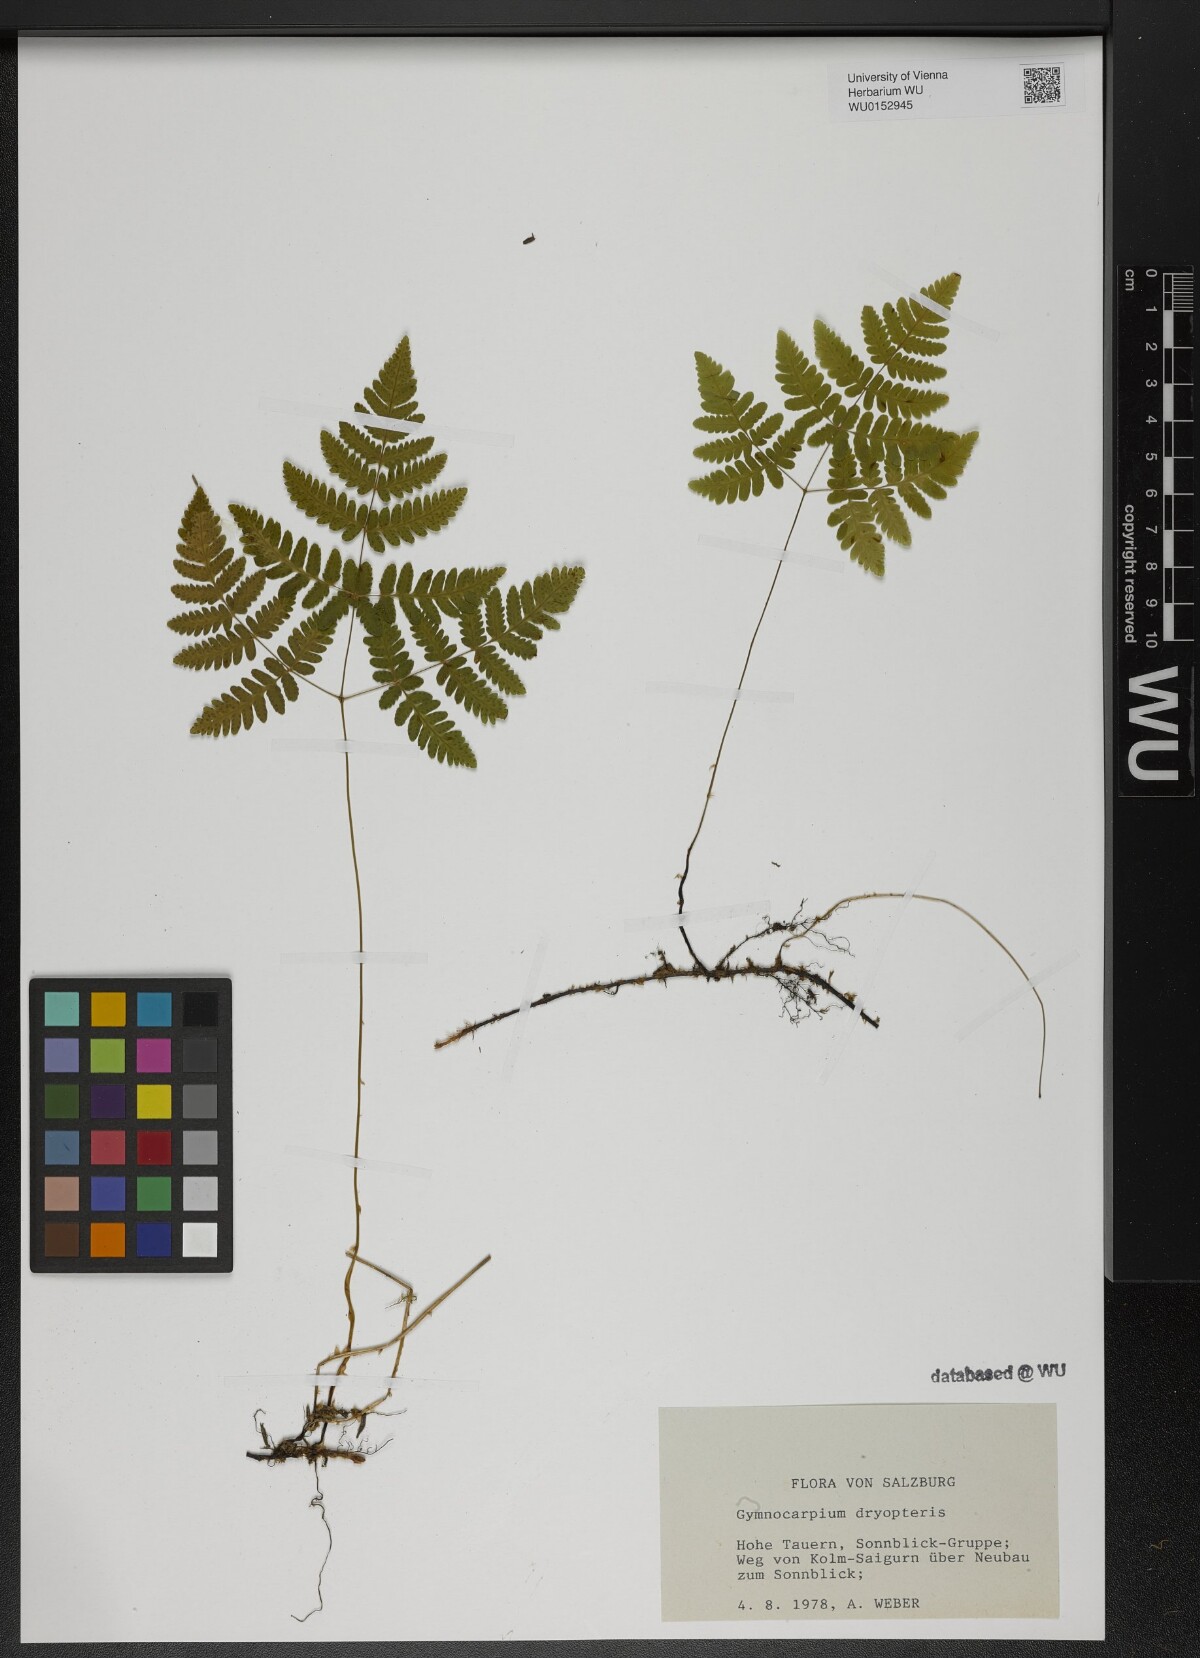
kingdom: Plantae
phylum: Tracheophyta
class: Polypodiopsida
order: Polypodiales
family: Cystopteridaceae
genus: Gymnocarpium
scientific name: Gymnocarpium dryopteris
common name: Oak fern
